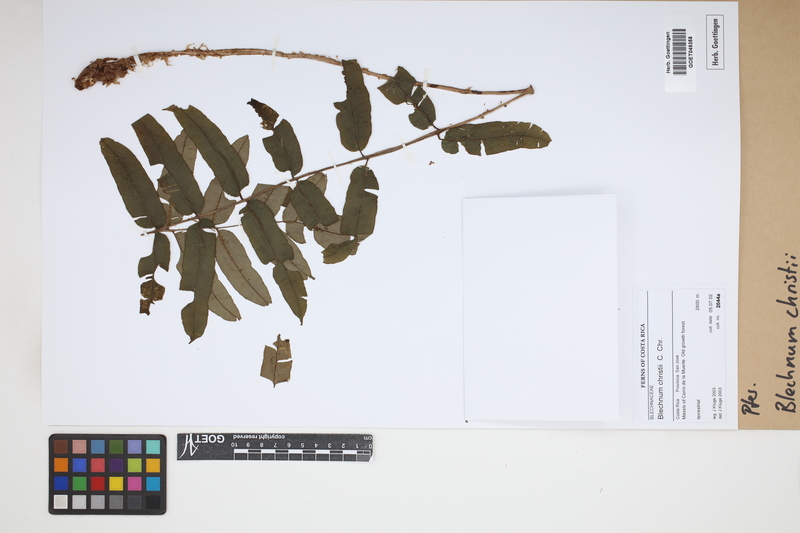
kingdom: Plantae
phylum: Tracheophyta
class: Polypodiopsida
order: Polypodiales
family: Blechnaceae
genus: Parablechnum
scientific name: Parablechnum christii
